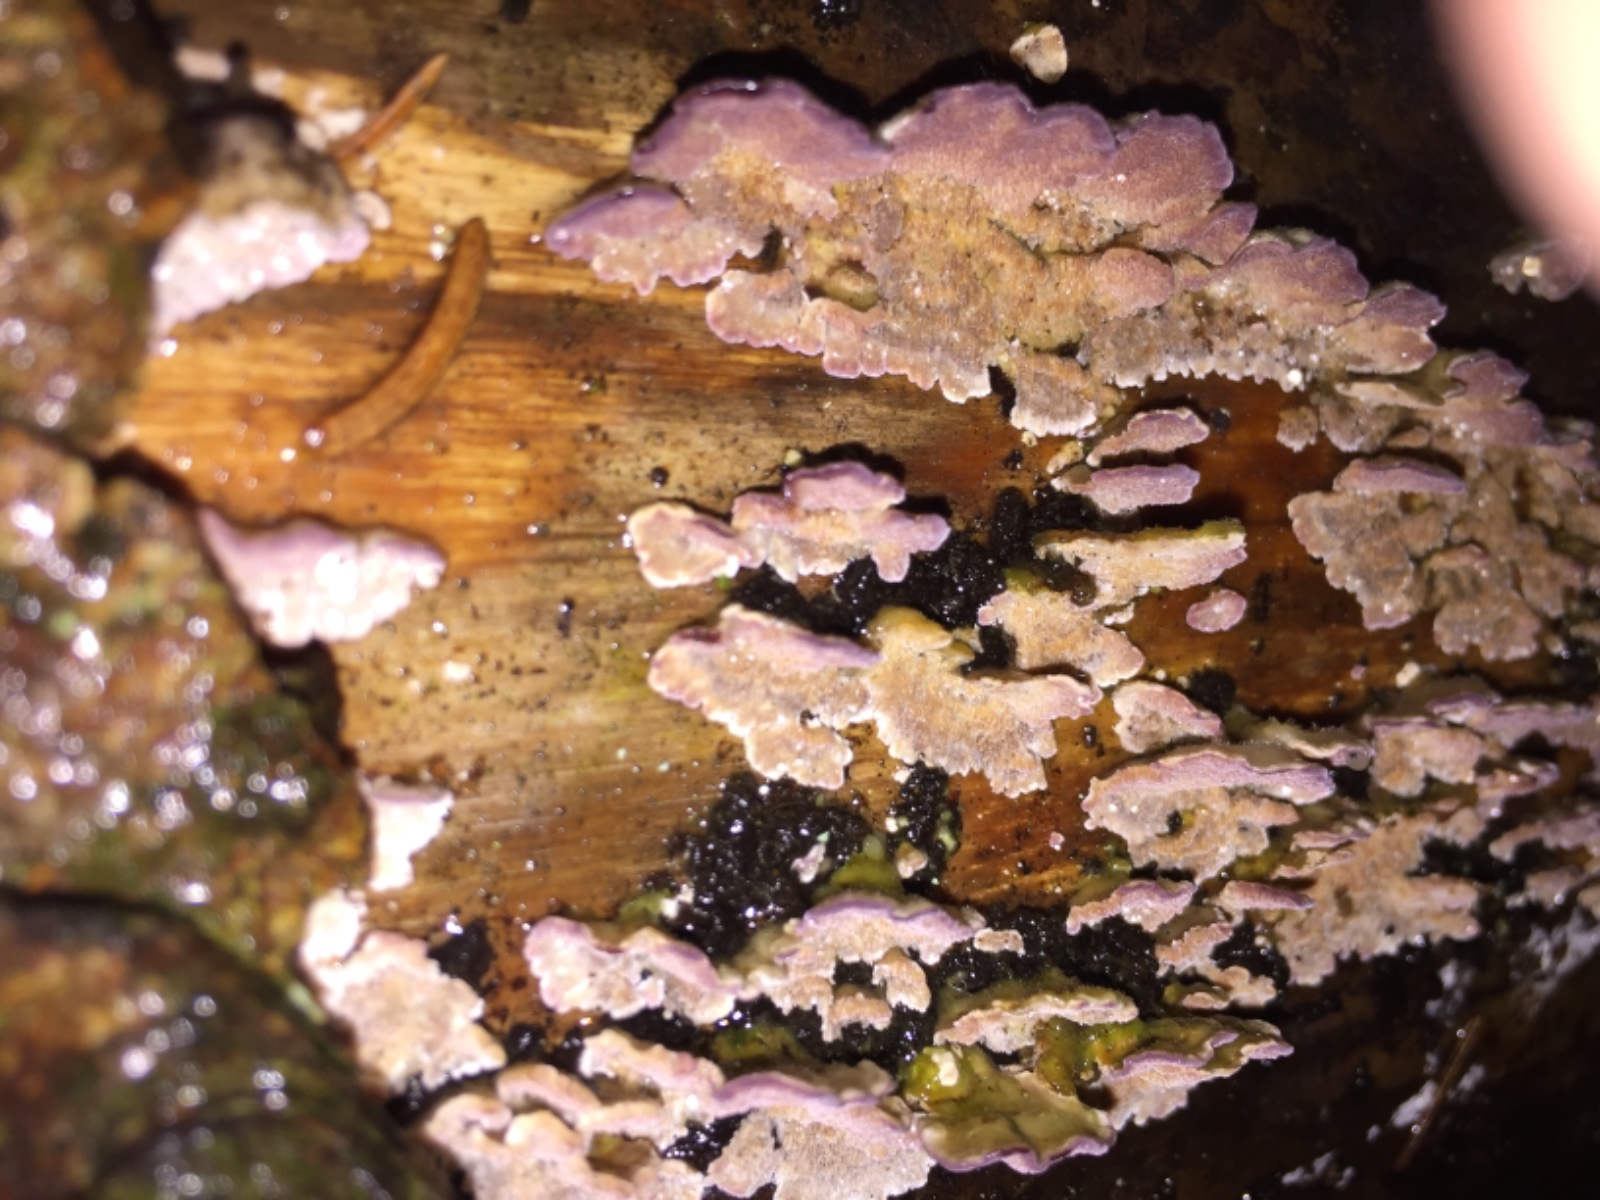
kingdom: Fungi
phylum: Basidiomycota
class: Agaricomycetes
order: Hymenochaetales
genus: Trichaptum
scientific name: Trichaptum abietinum
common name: almindelig violporesvamp
